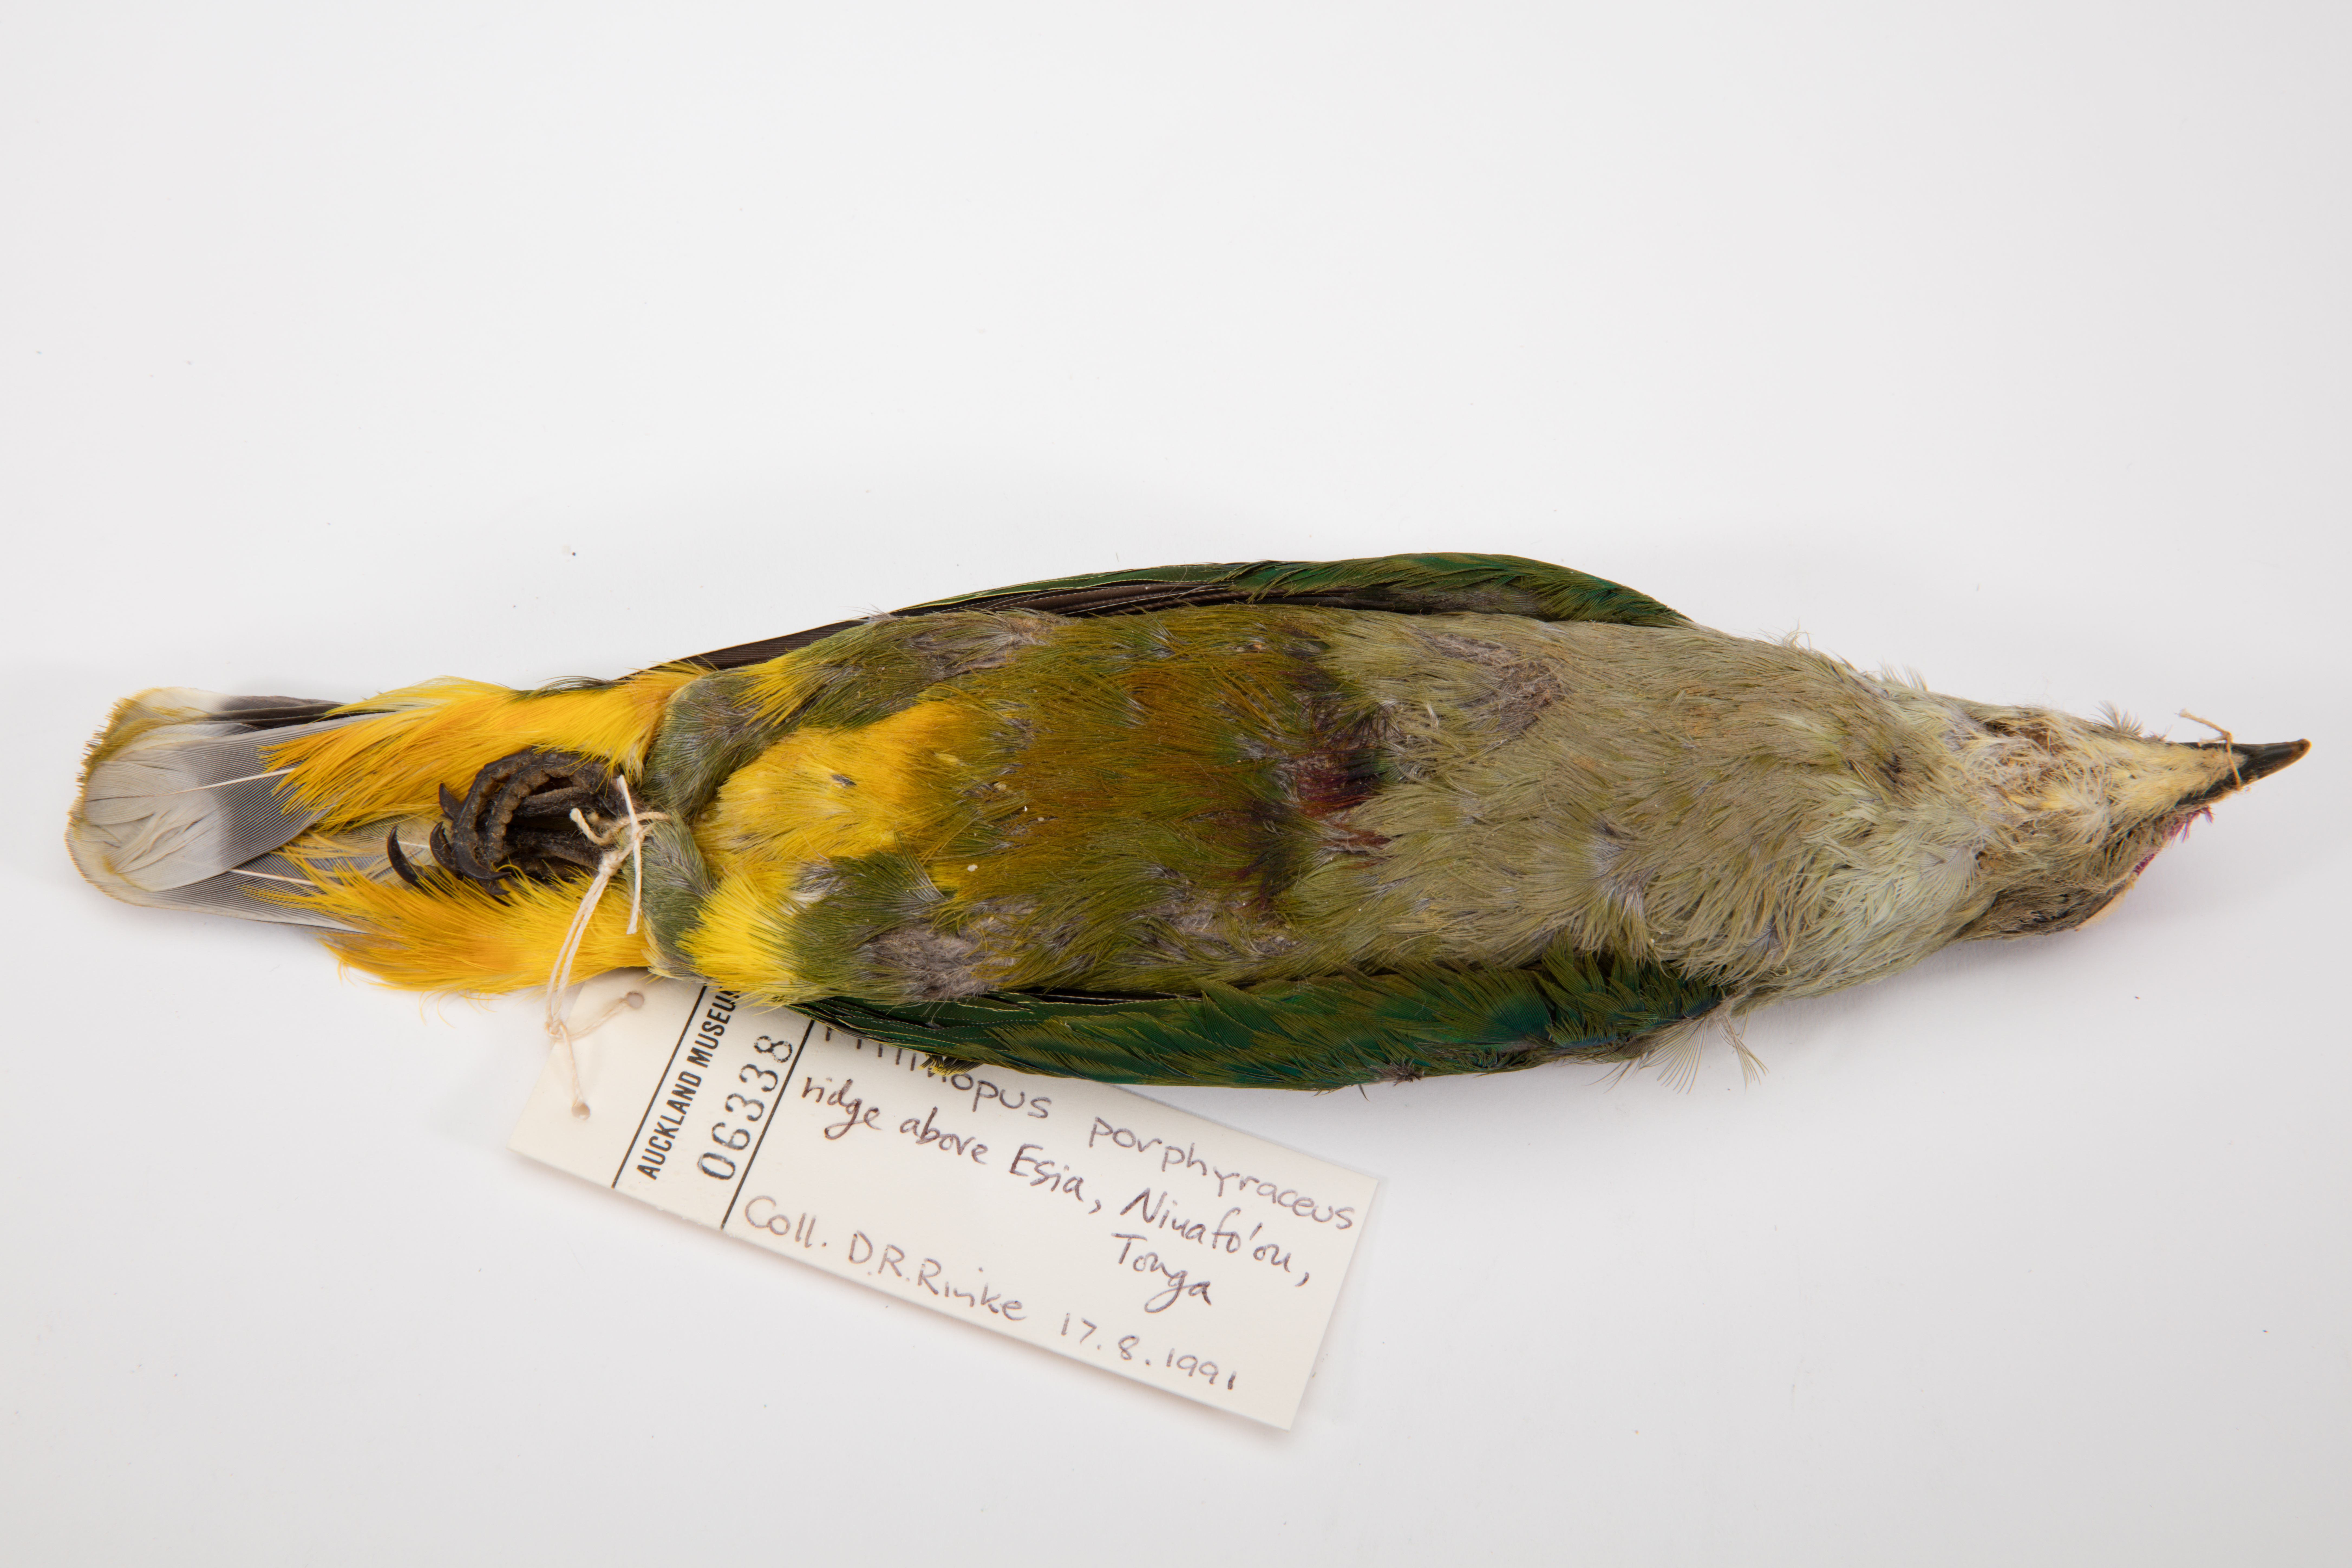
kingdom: Animalia
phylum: Chordata
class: Aves
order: Columbiformes
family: Columbidae
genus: Ptilinopus
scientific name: Ptilinopus porphyraceus
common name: Crimson-crowned fruit dove
